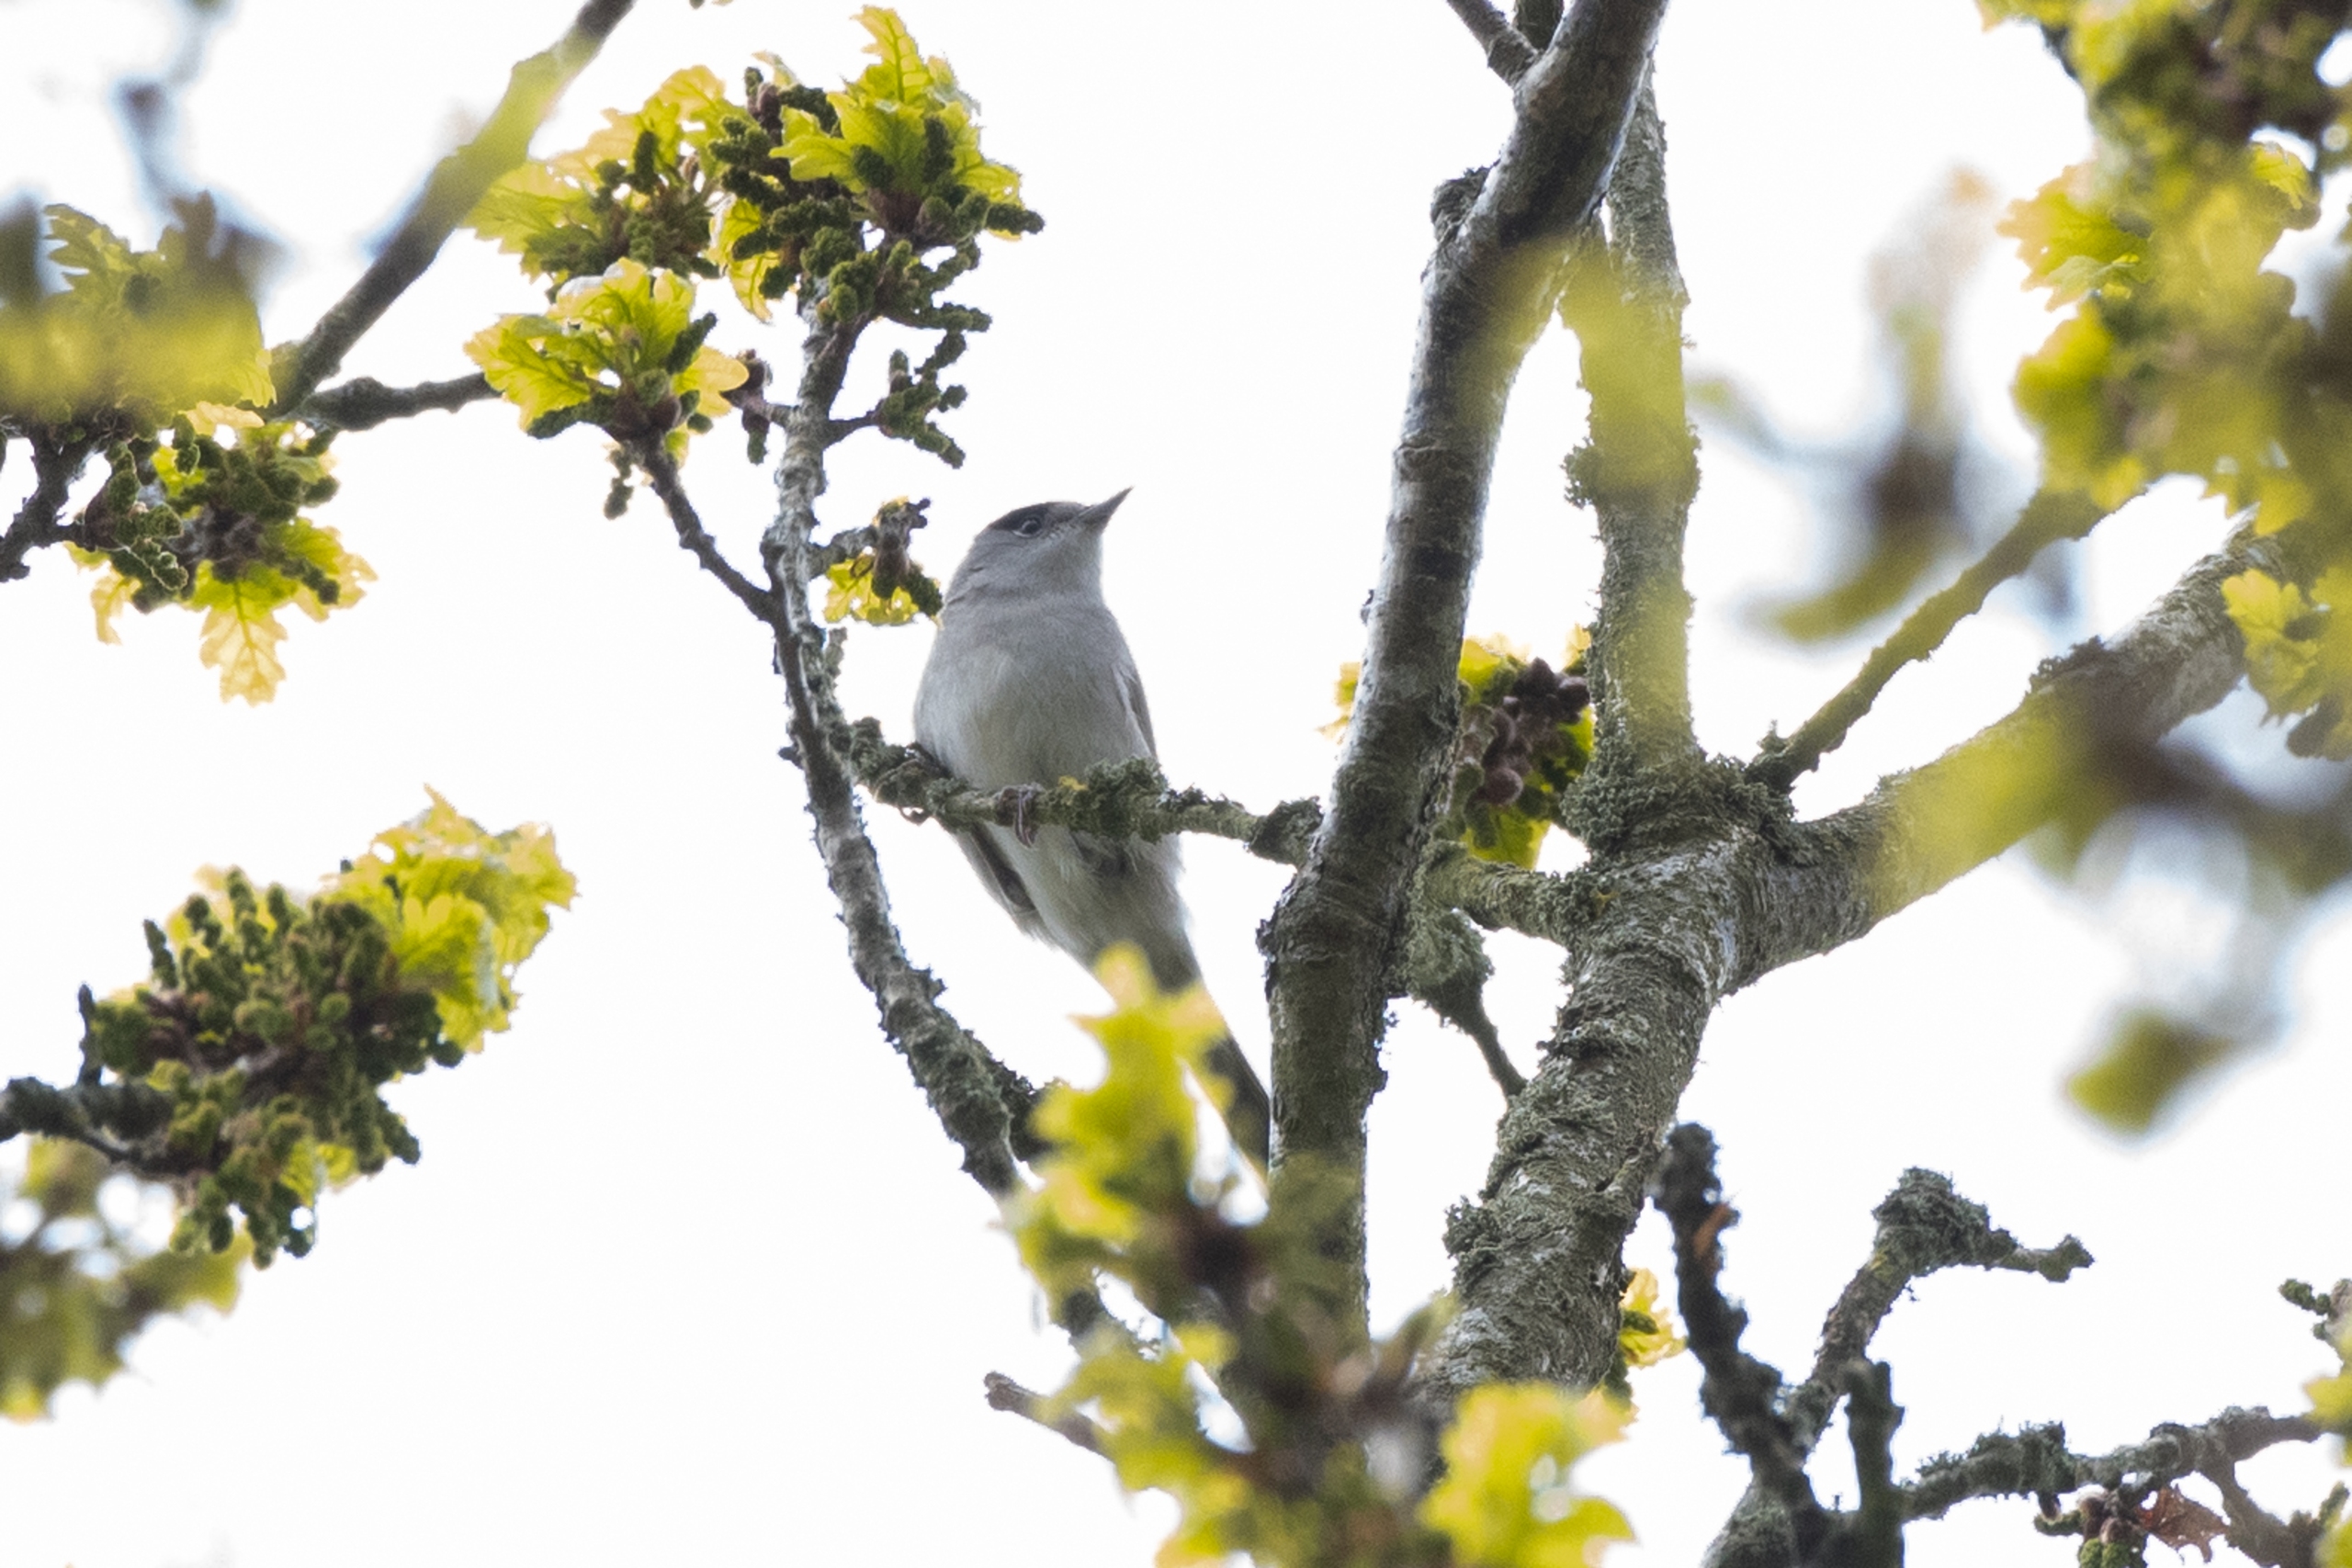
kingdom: Animalia
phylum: Chordata
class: Aves
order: Passeriformes
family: Sylviidae
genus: Sylvia
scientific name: Sylvia atricapilla
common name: Munk
